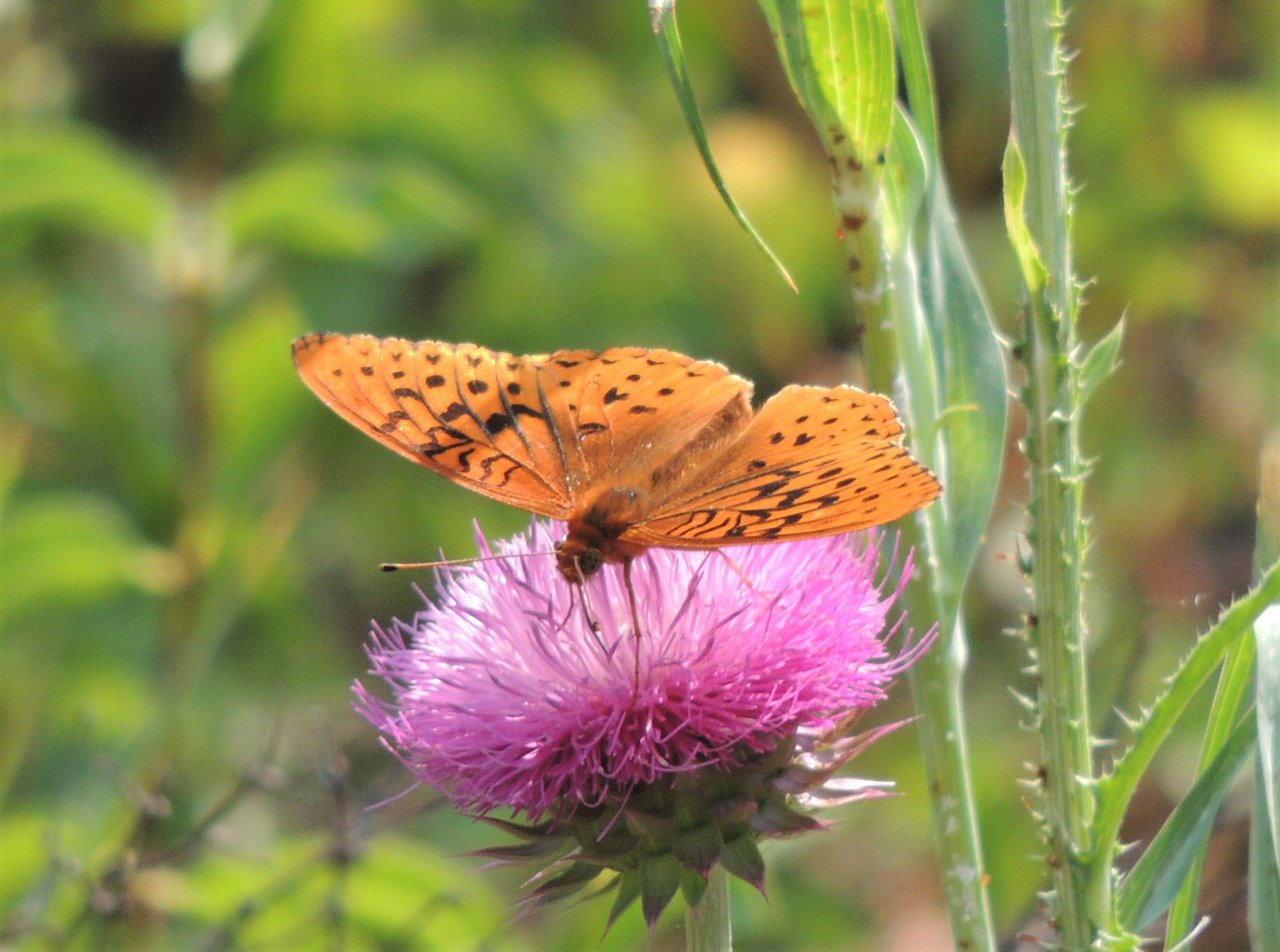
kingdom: Animalia
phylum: Arthropoda
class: Insecta
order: Lepidoptera
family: Nymphalidae
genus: Speyeria
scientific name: Speyeria cybele
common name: Great Spangled Fritillary
